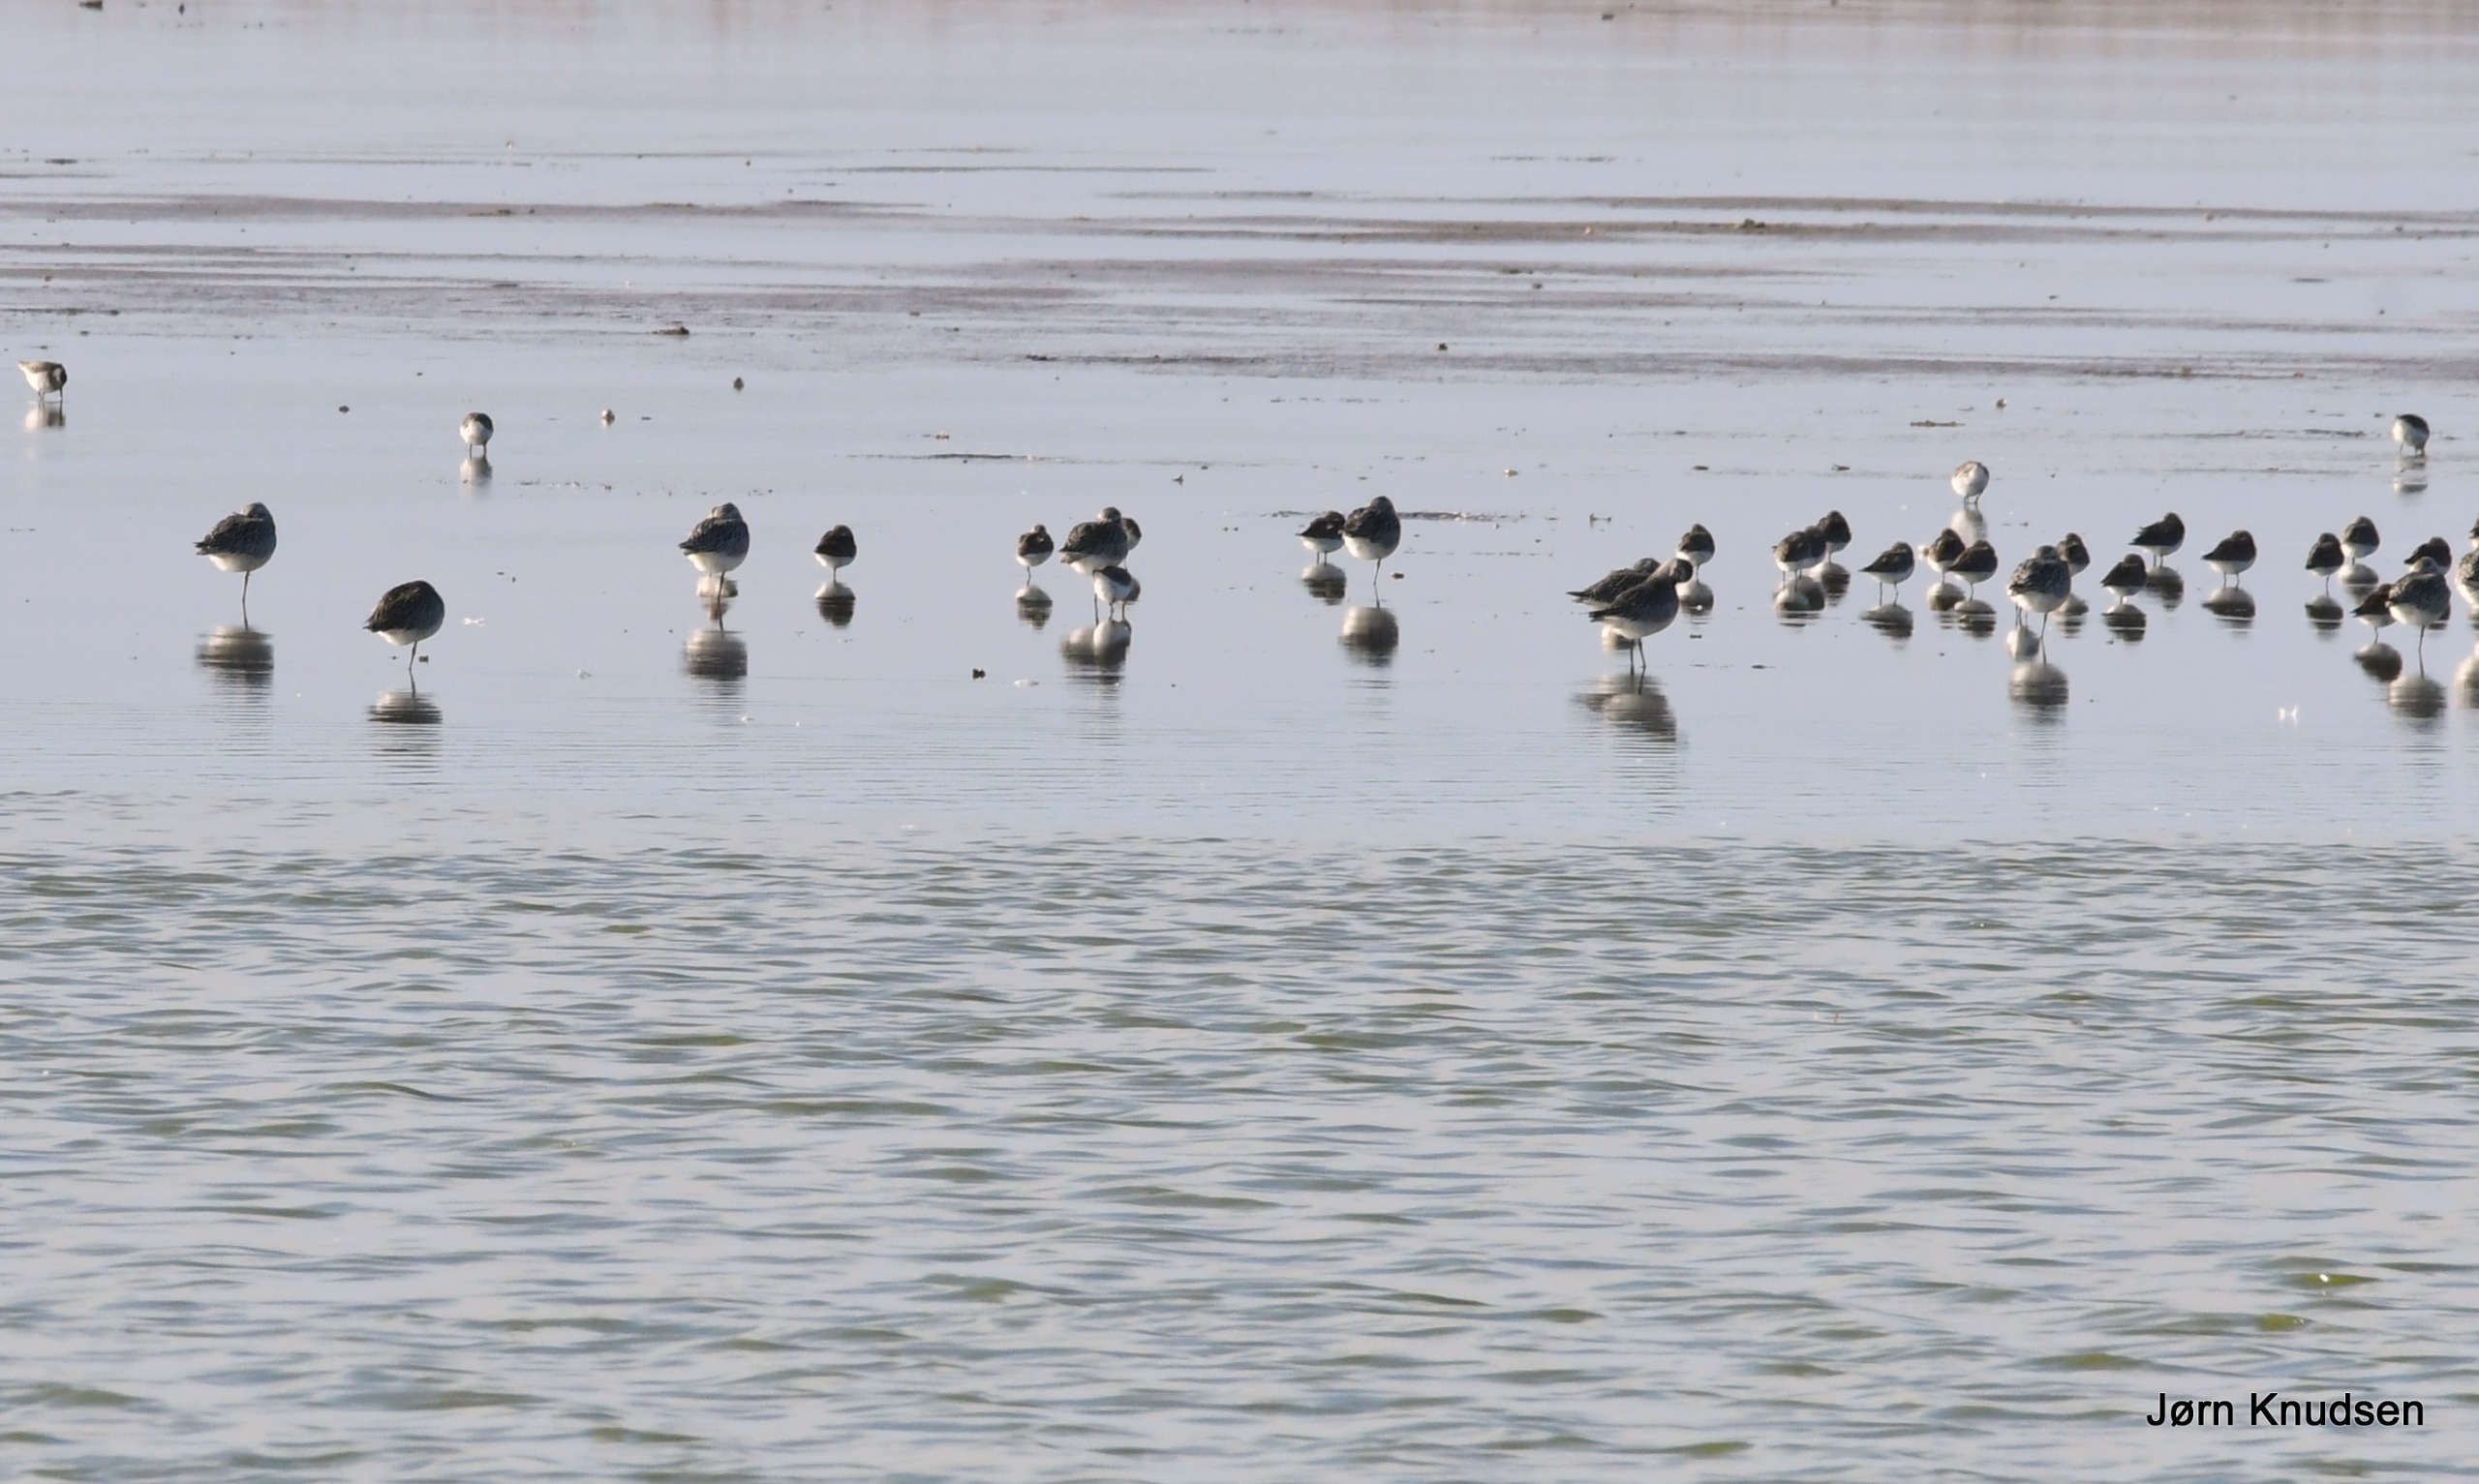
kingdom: Animalia
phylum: Chordata
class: Aves
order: Charadriiformes
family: Scolopacidae
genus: Calidris
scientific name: Calidris alpina
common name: Almindelig ryle
